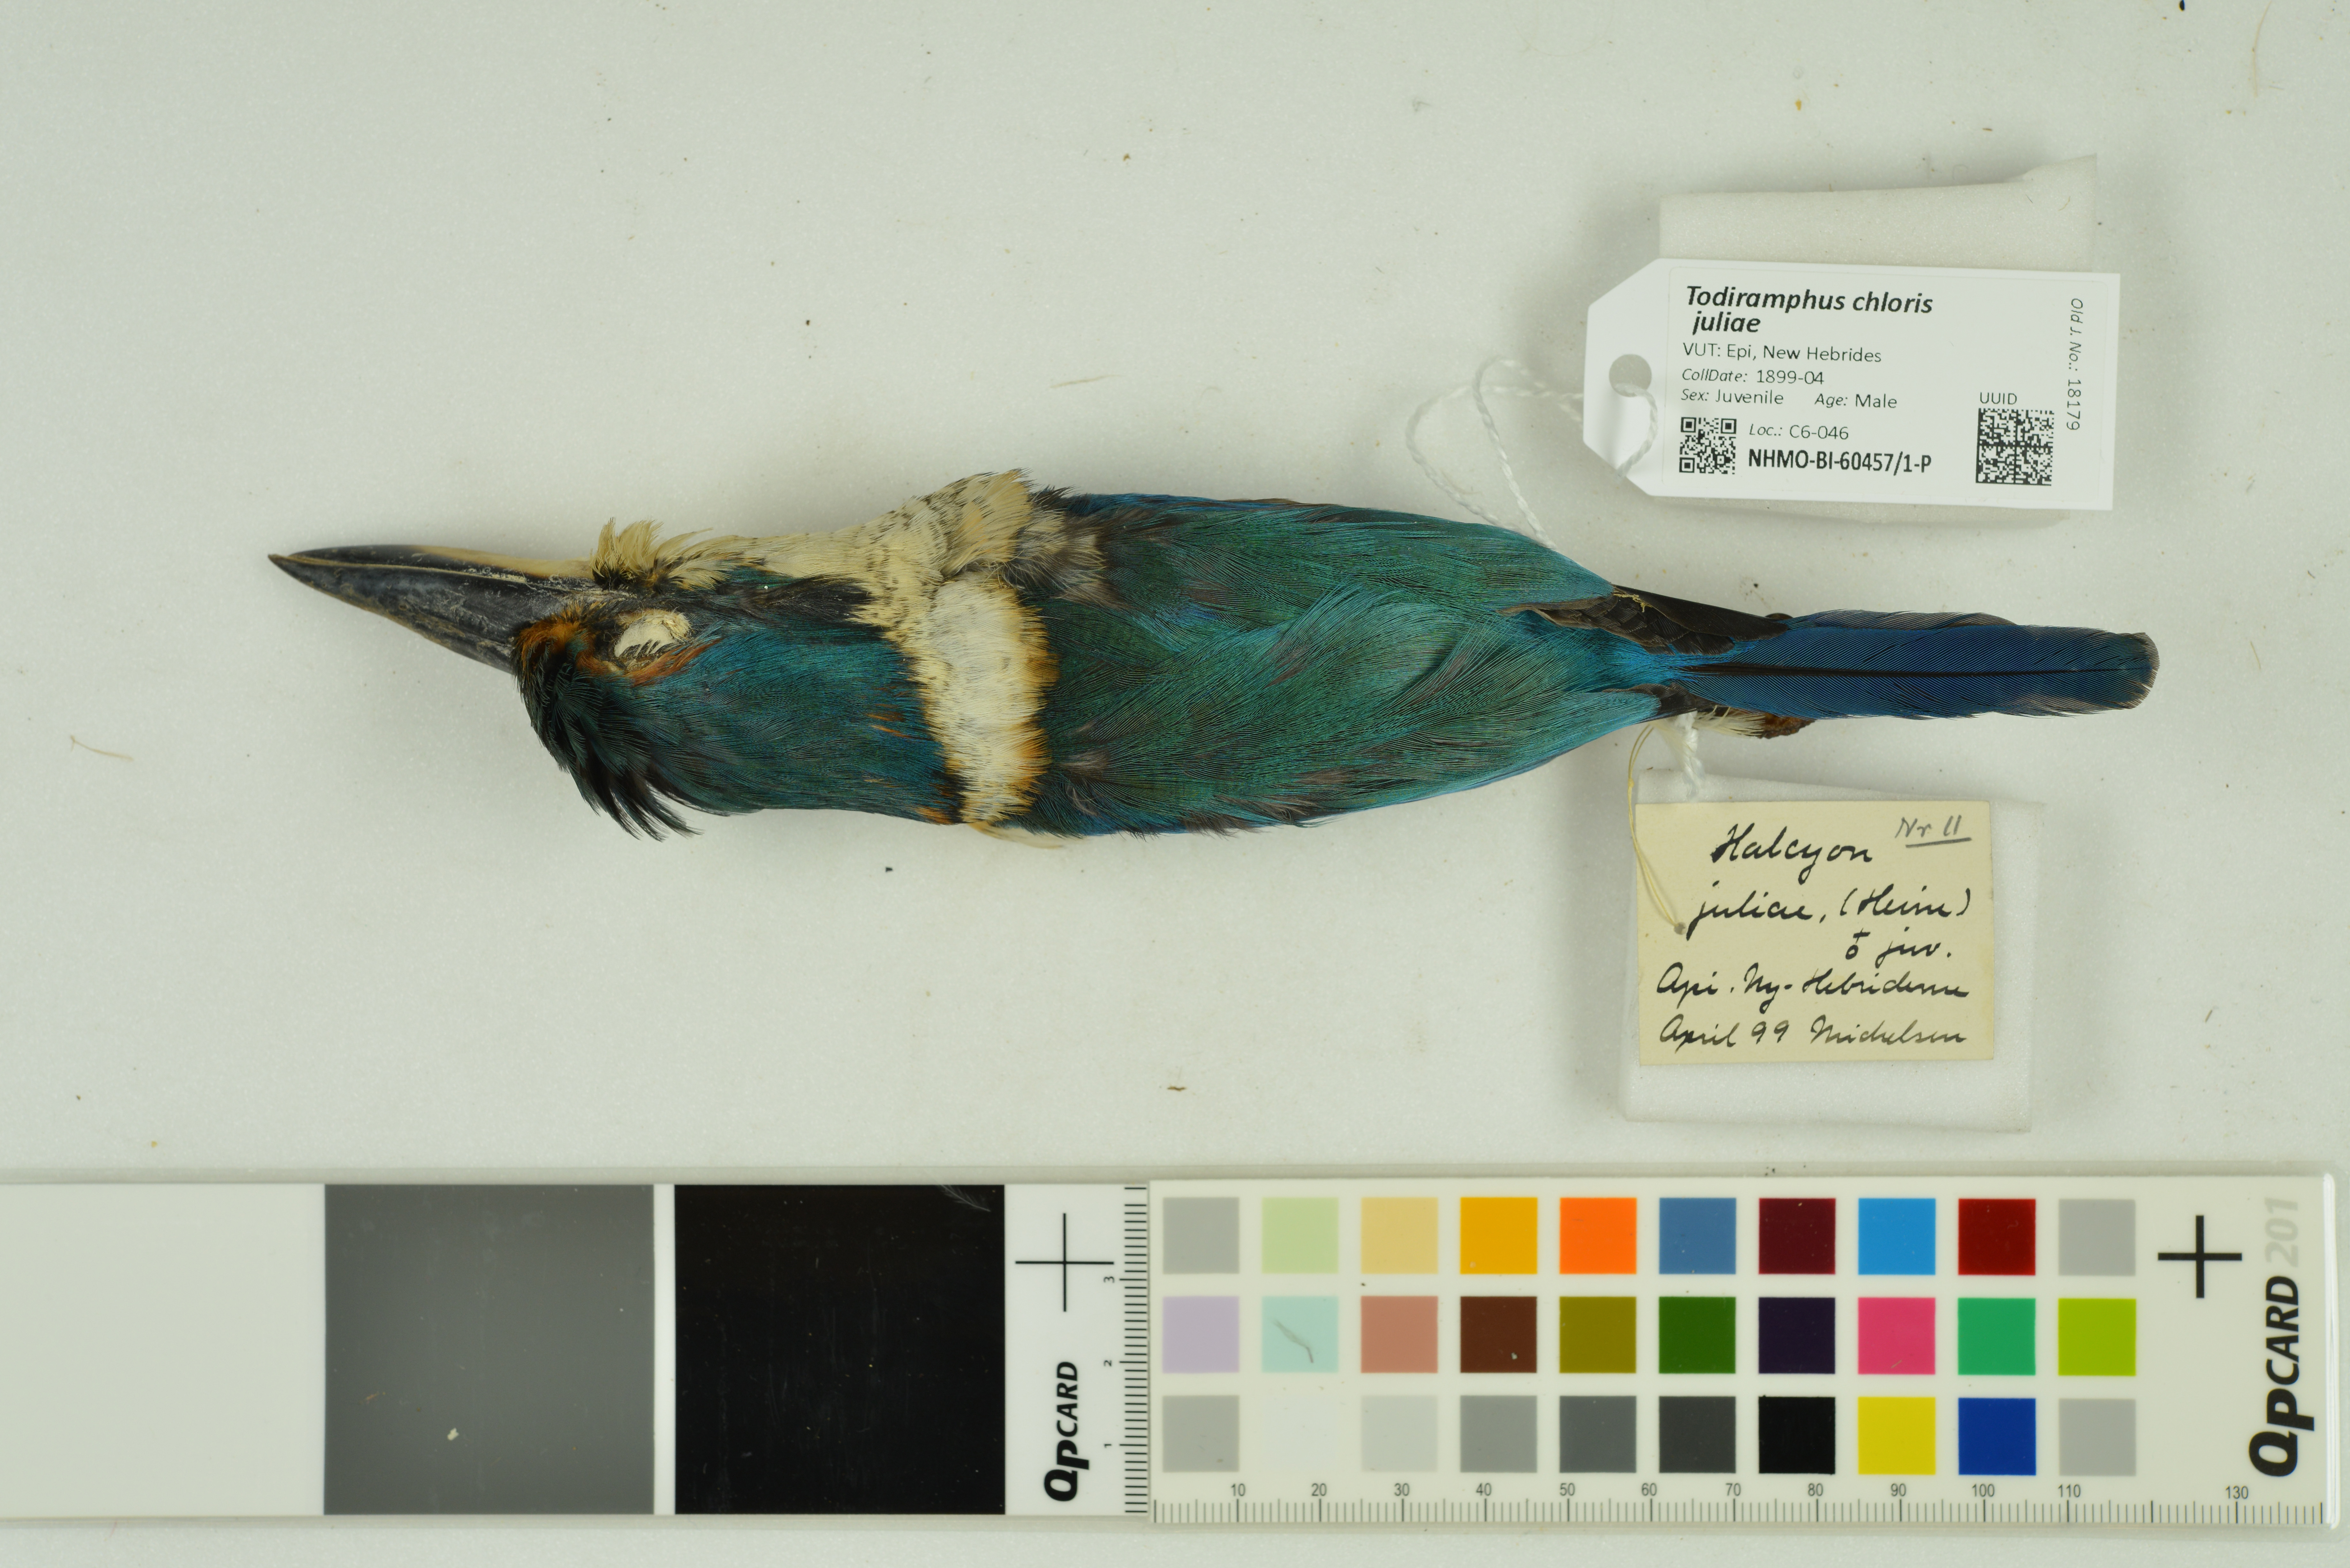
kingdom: Animalia
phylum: Chordata
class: Aves
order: Coraciiformes
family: Alcedinidae
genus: Todiramphus
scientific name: Todiramphus sacer
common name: Pacific kingfisher
